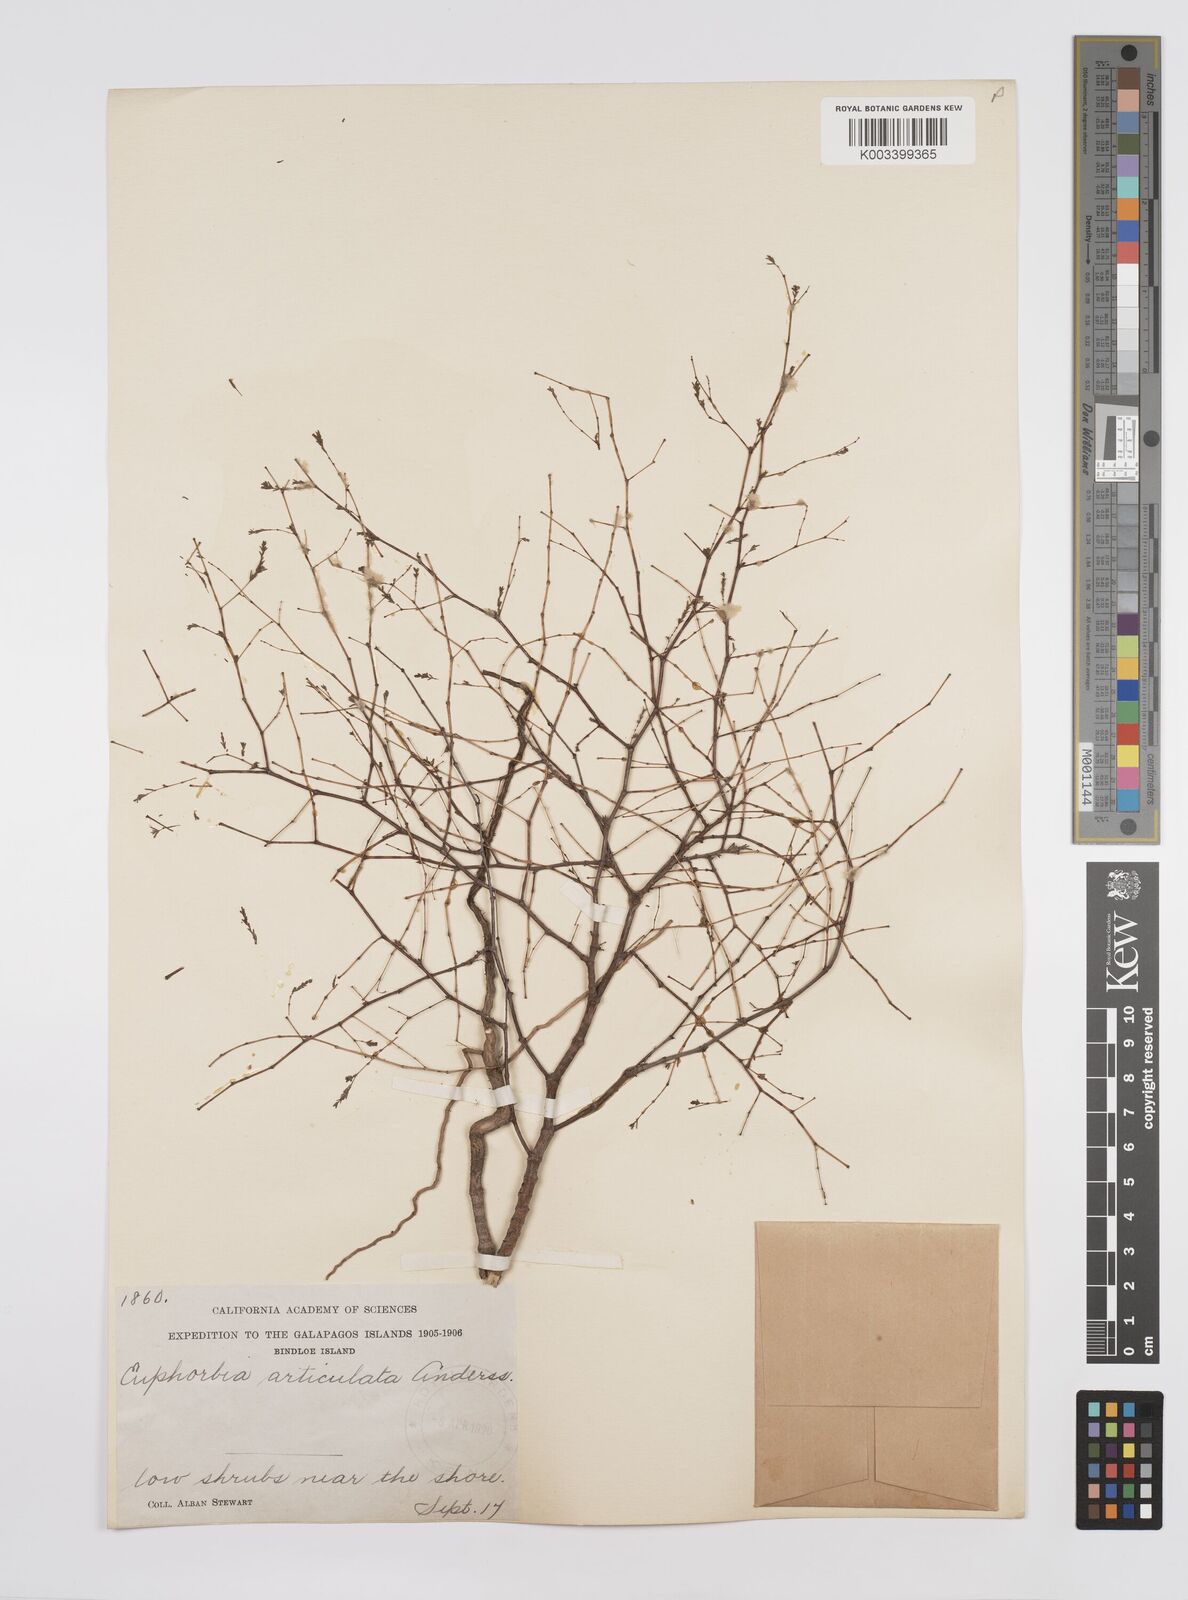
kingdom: Plantae
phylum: Tracheophyta
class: Magnoliopsida
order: Malpighiales
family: Euphorbiaceae
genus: Euphorbia
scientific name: Euphorbia punctulata
